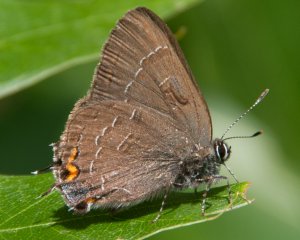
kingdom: Animalia
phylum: Arthropoda
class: Insecta
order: Lepidoptera
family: Lycaenidae
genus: Satyrium
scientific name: Satyrium calanus
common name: Banded Hairstreak
